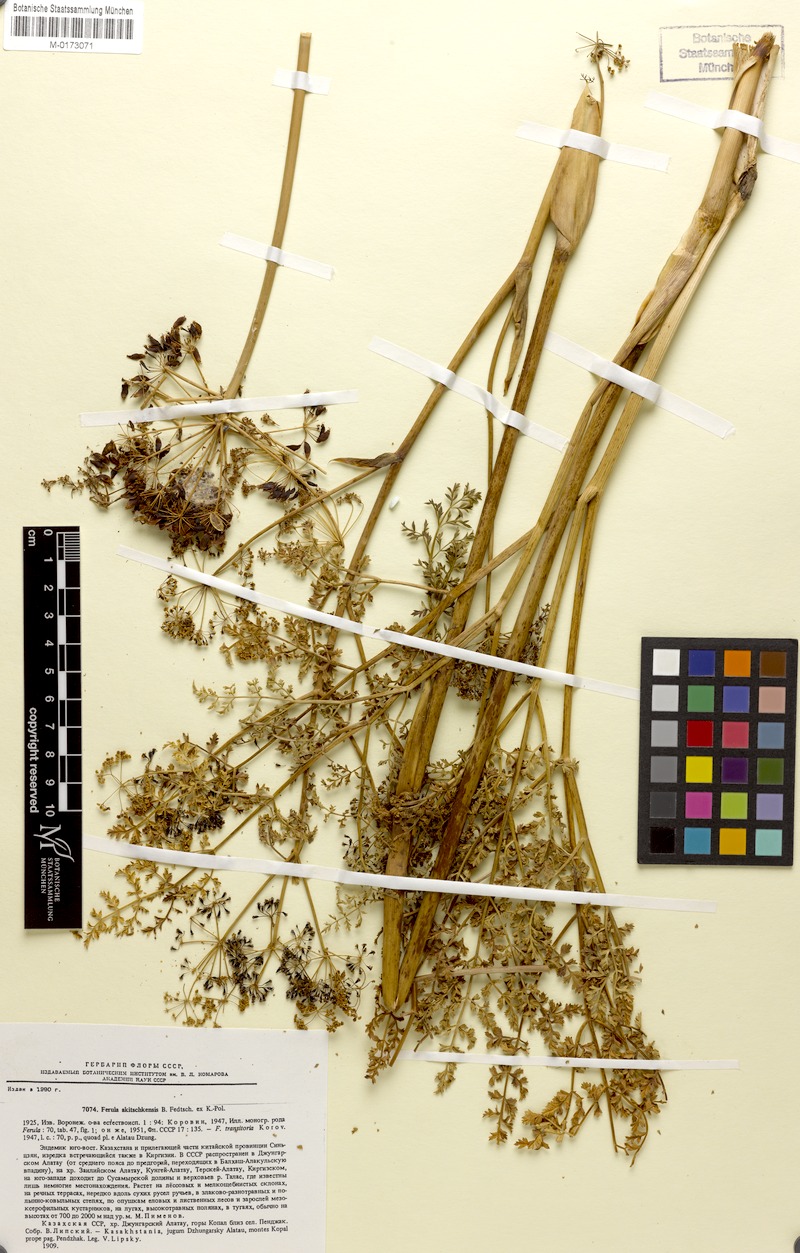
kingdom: Plantae
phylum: Tracheophyta
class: Magnoliopsida
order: Apiales
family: Apiaceae
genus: Ferula
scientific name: Ferula akitschkensis
